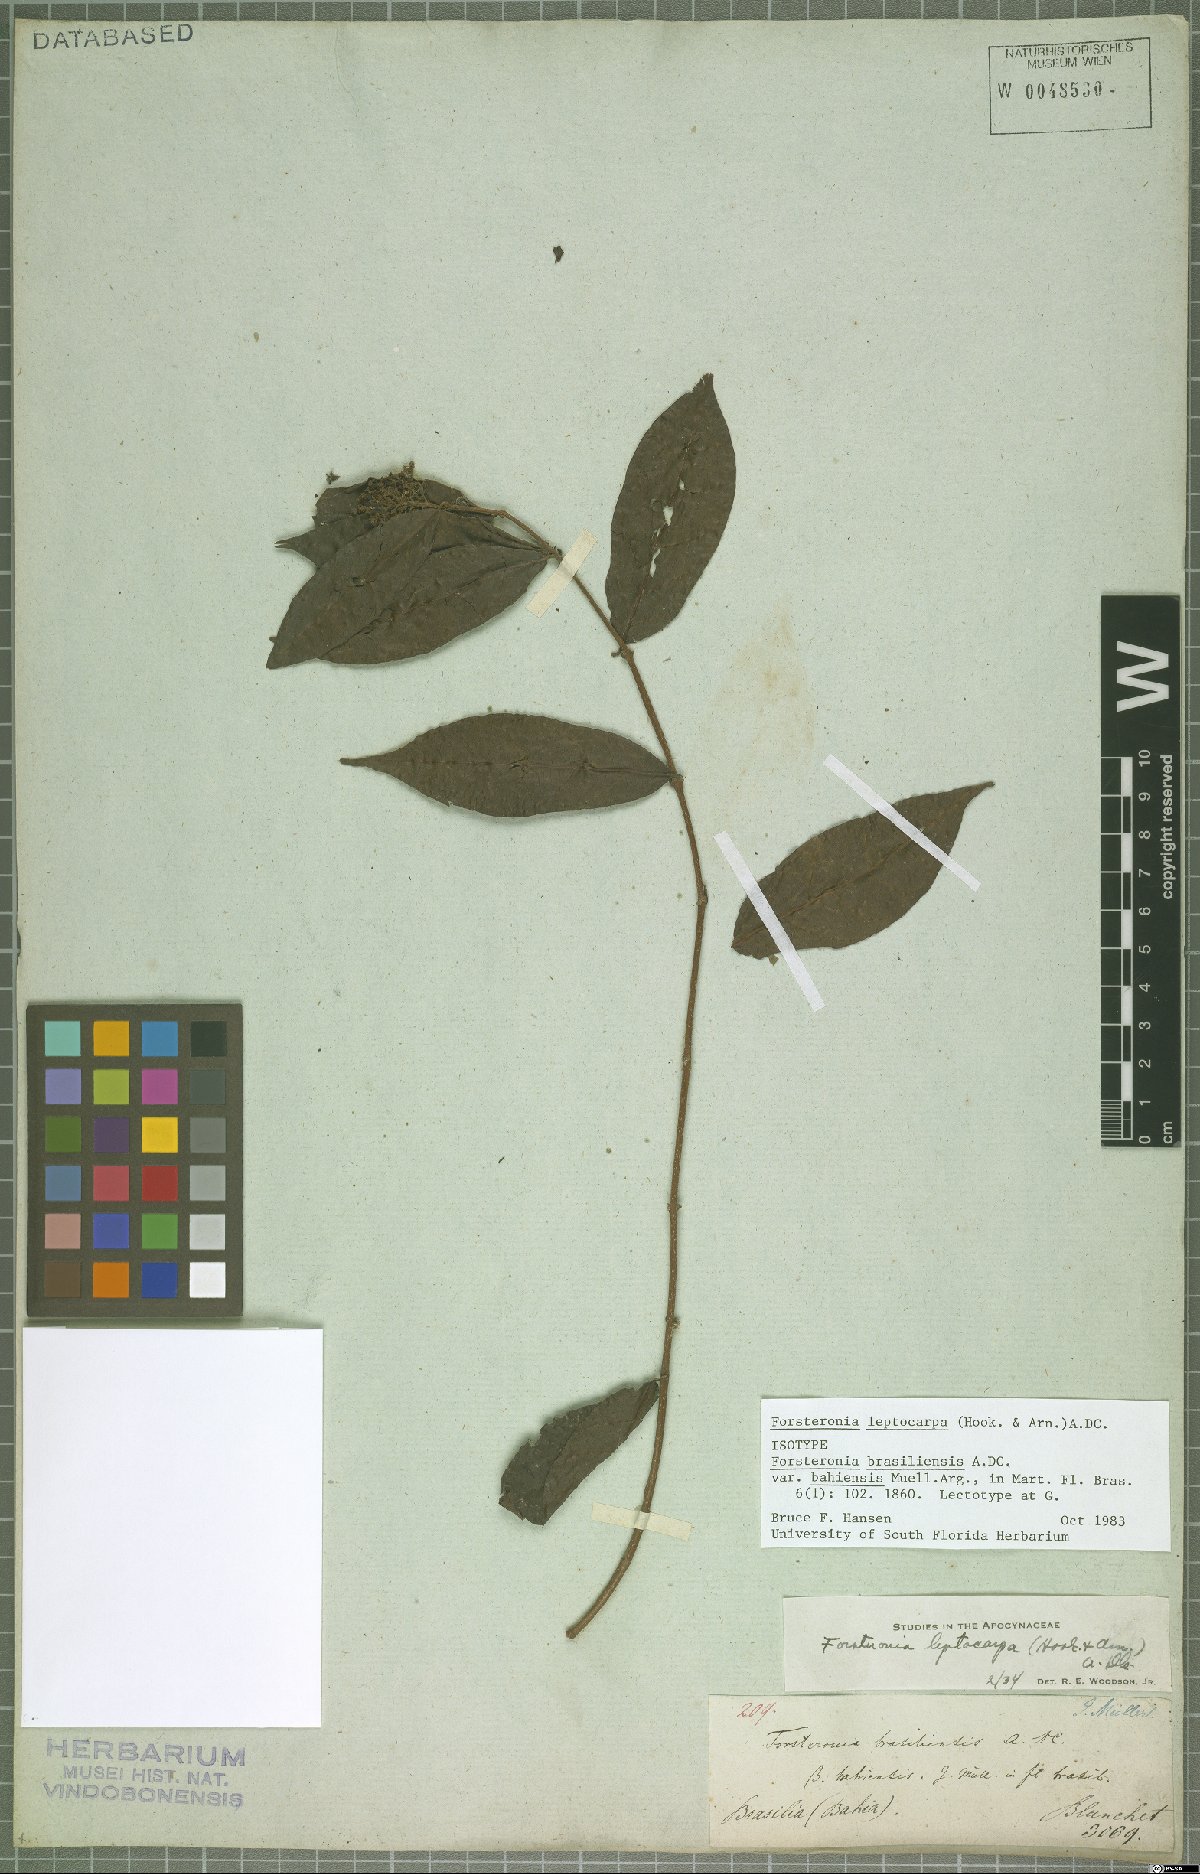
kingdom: Plantae
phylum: Tracheophyta
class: Magnoliopsida
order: Gentianales
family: Apocynaceae
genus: Forsteronia
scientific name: Forsteronia leptocarpa
